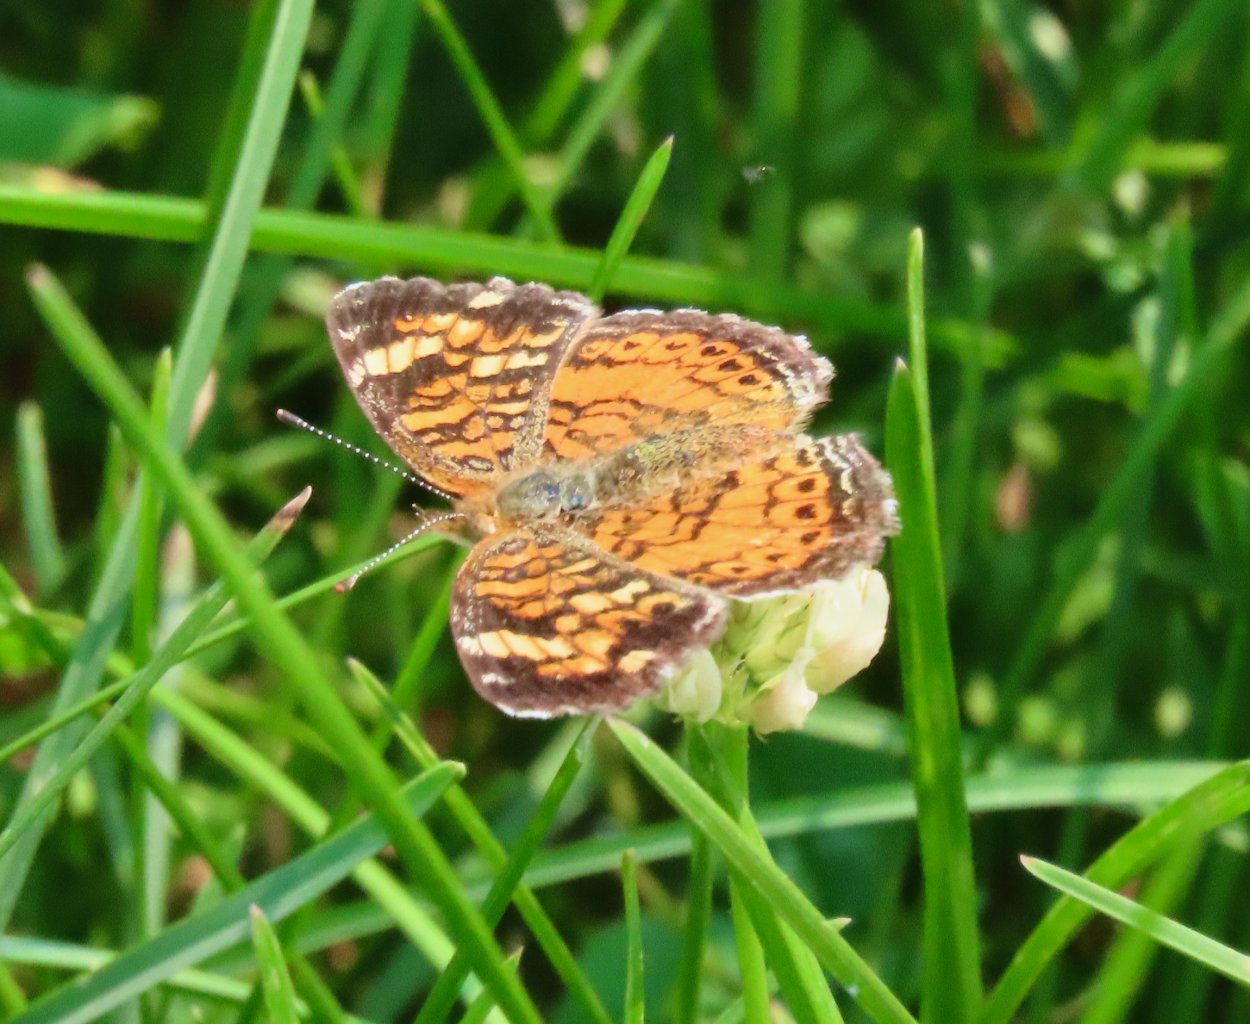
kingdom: Animalia
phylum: Arthropoda
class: Insecta
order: Lepidoptera
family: Nymphalidae
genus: Phyciodes
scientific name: Phyciodes tharos
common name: Pearl Crescent
